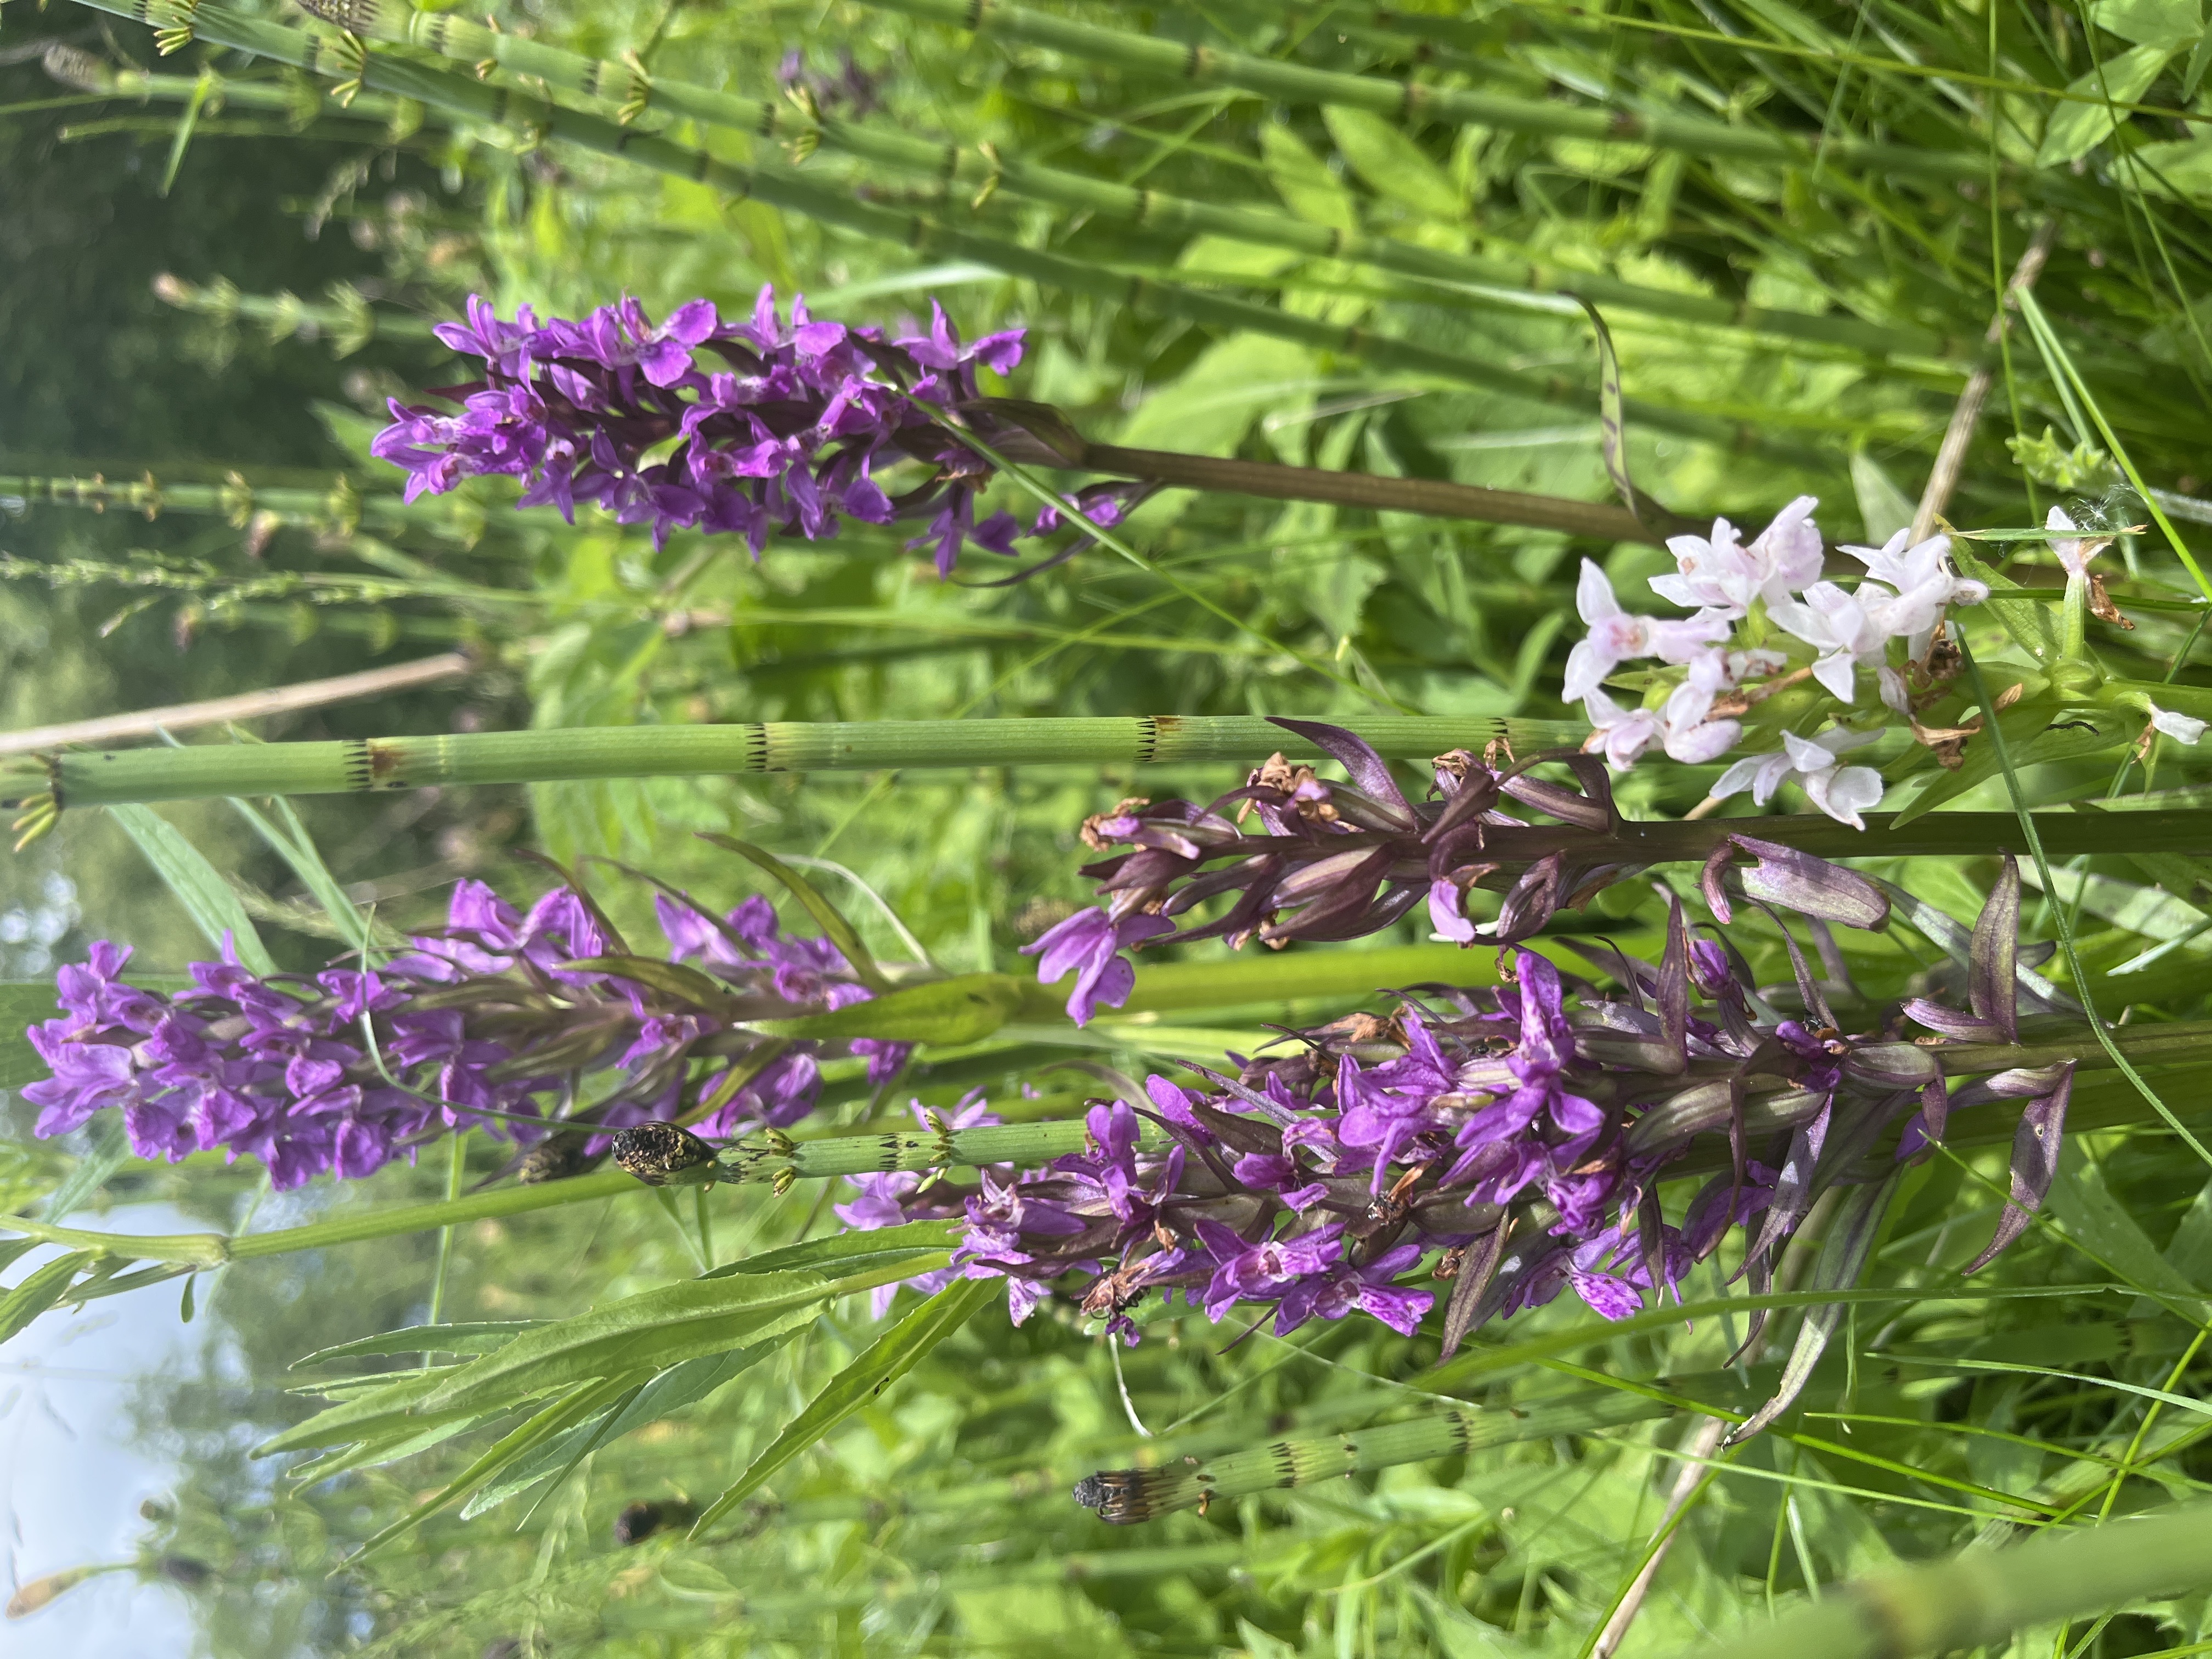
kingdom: Plantae
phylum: Tracheophyta
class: Liliopsida
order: Asparagales
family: Orchidaceae
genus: Dactylorhiza
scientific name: Dactylorhiza majalis
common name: Maj-gøgeurt
